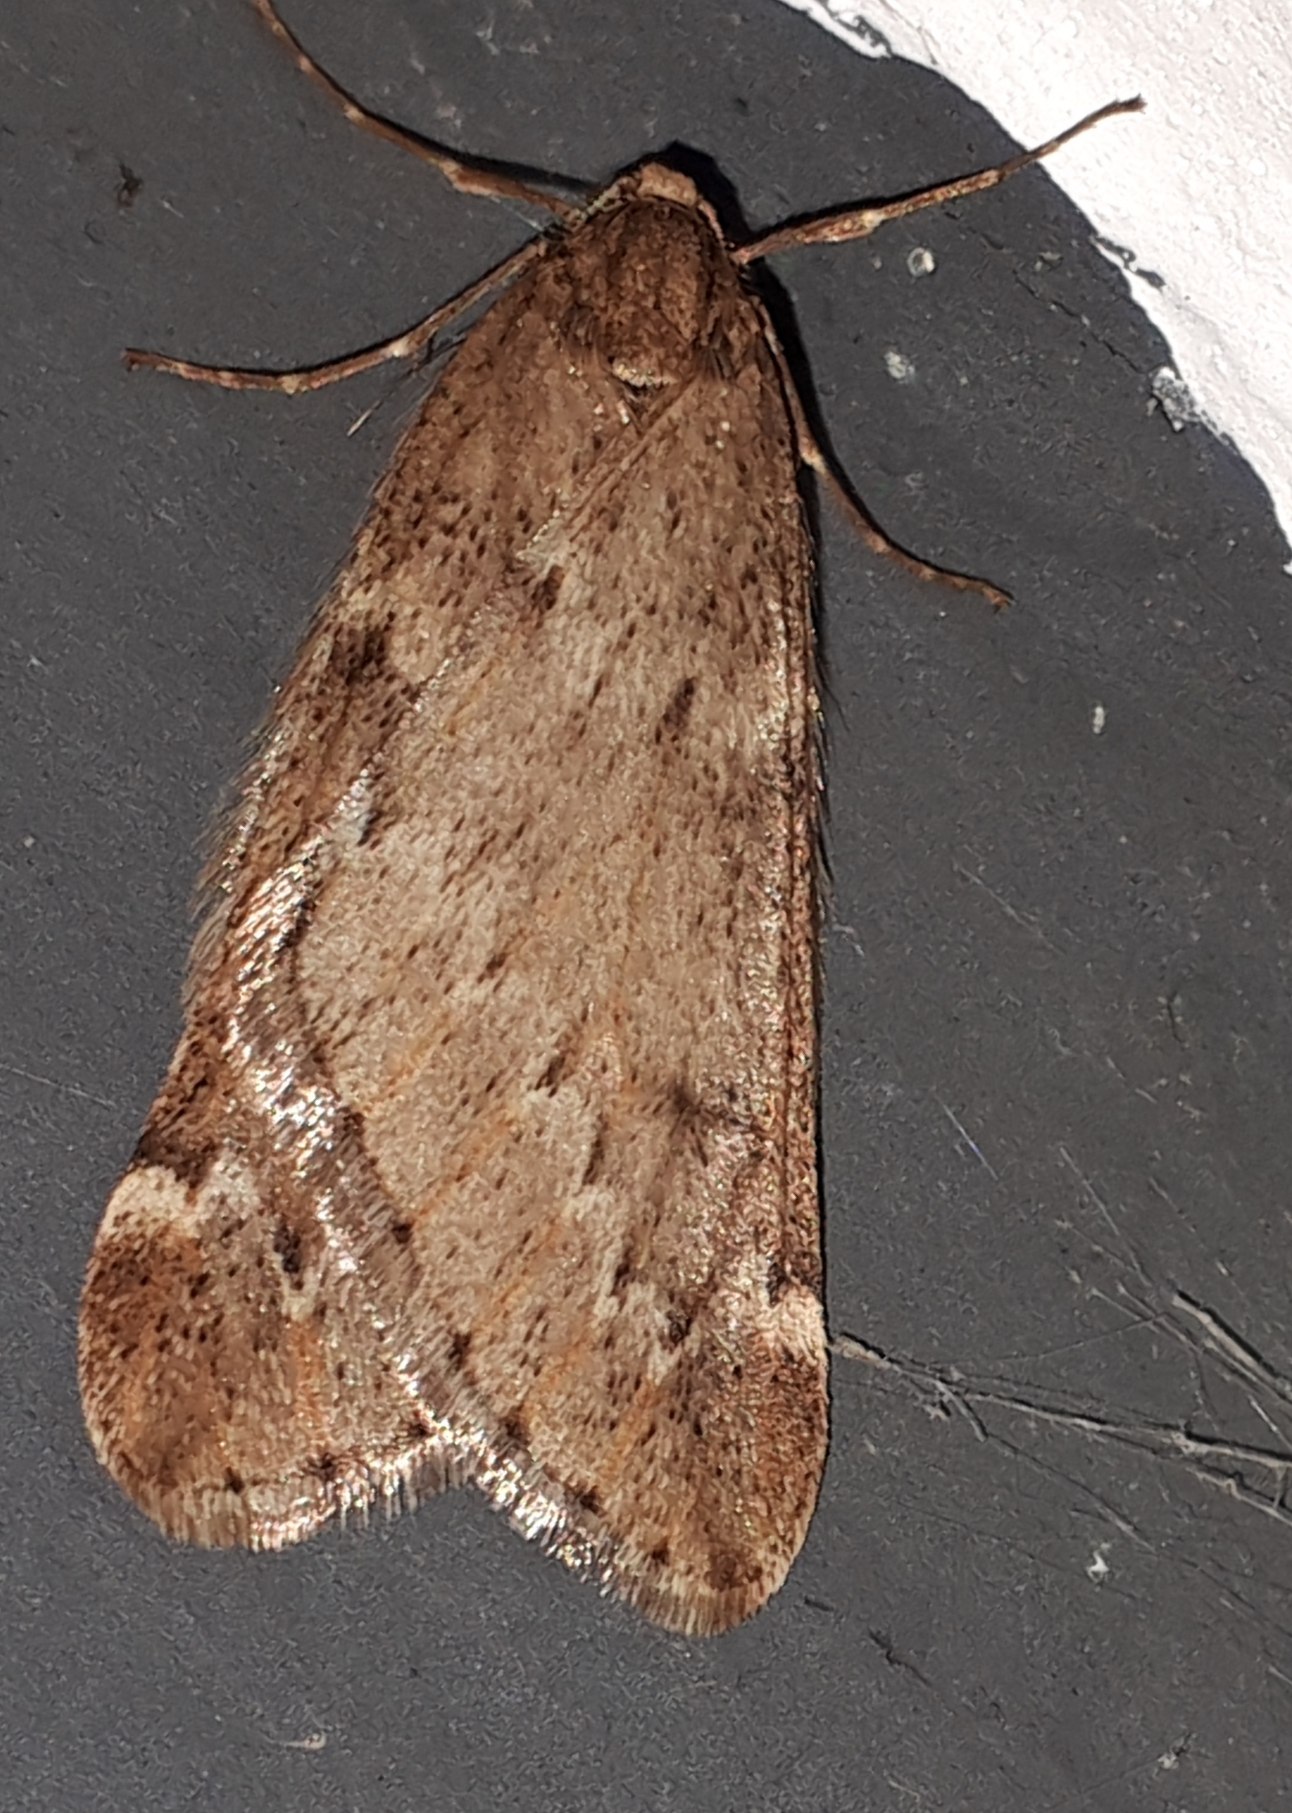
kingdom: Animalia
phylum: Arthropoda
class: Insecta
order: Lepidoptera
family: Geometridae
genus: Alsophila
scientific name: Alsophila aescularia
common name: Uldgumpmåler
